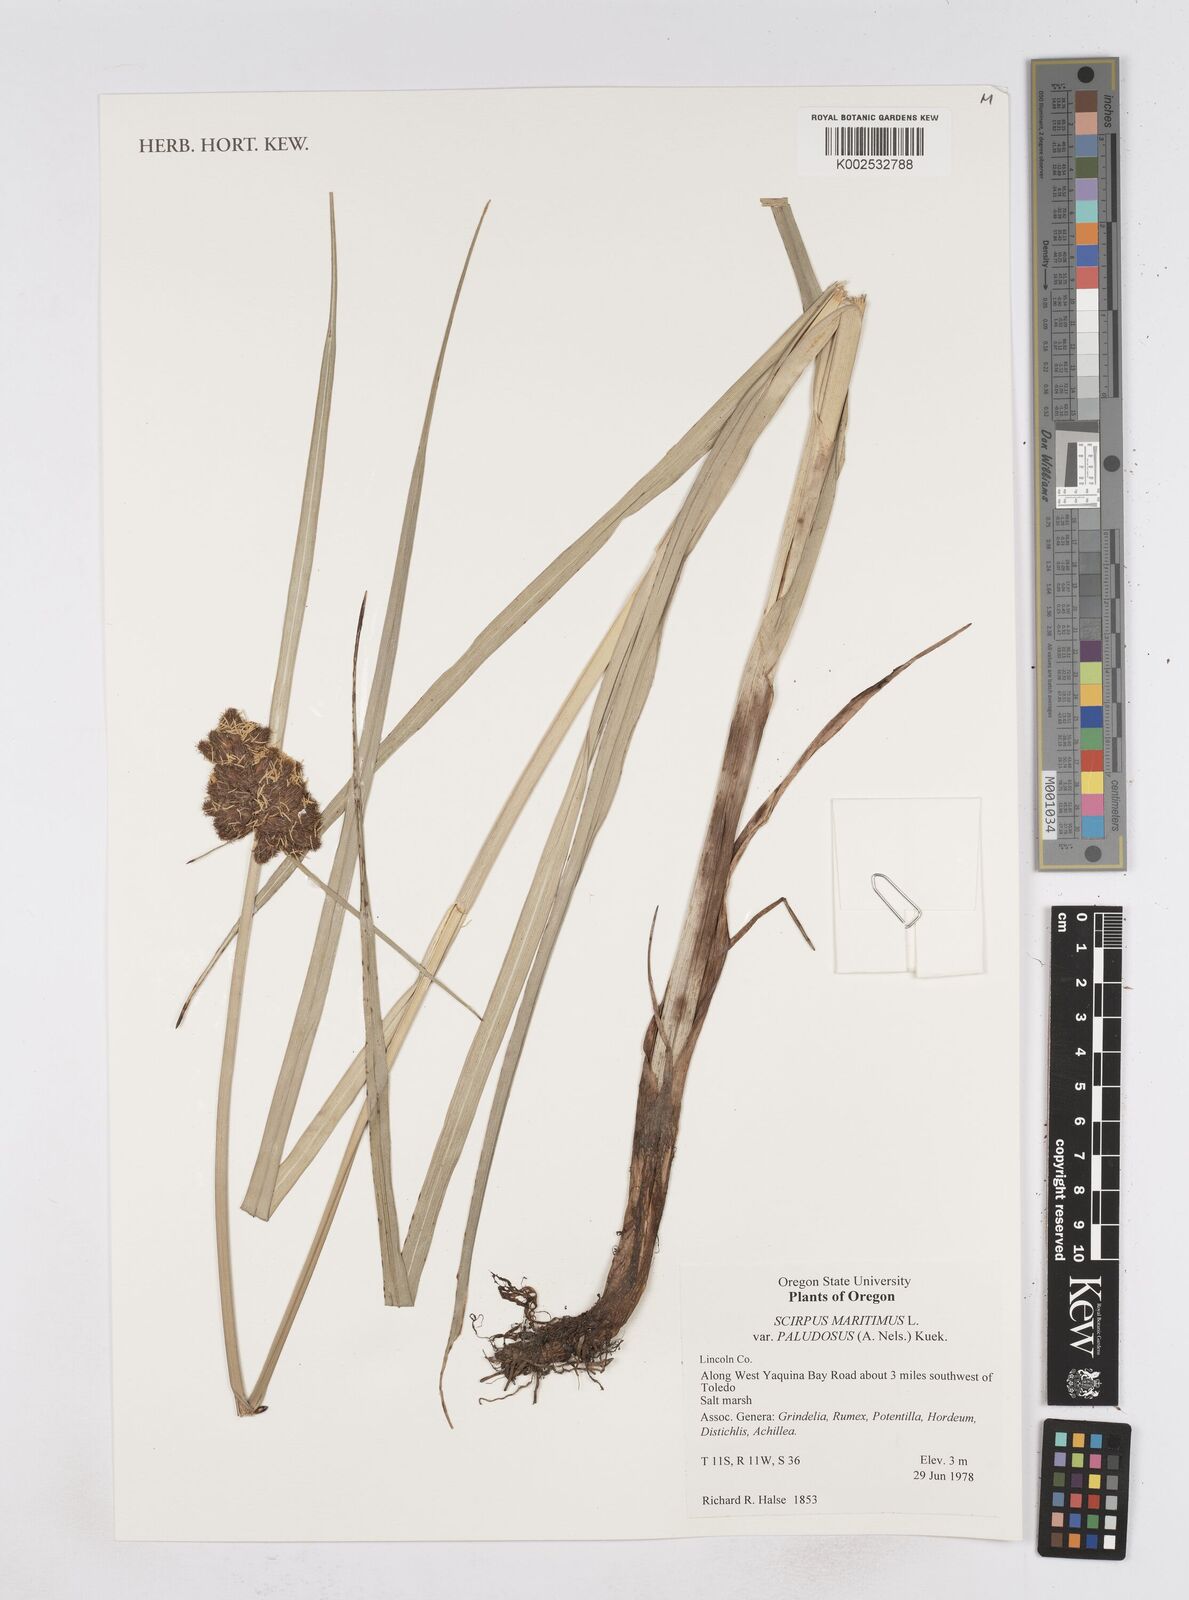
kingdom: Plantae
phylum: Tracheophyta
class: Liliopsida
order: Poales
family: Cyperaceae
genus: Bolboschoenus
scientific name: Bolboschoenus maritimus
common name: Sea club-rush
